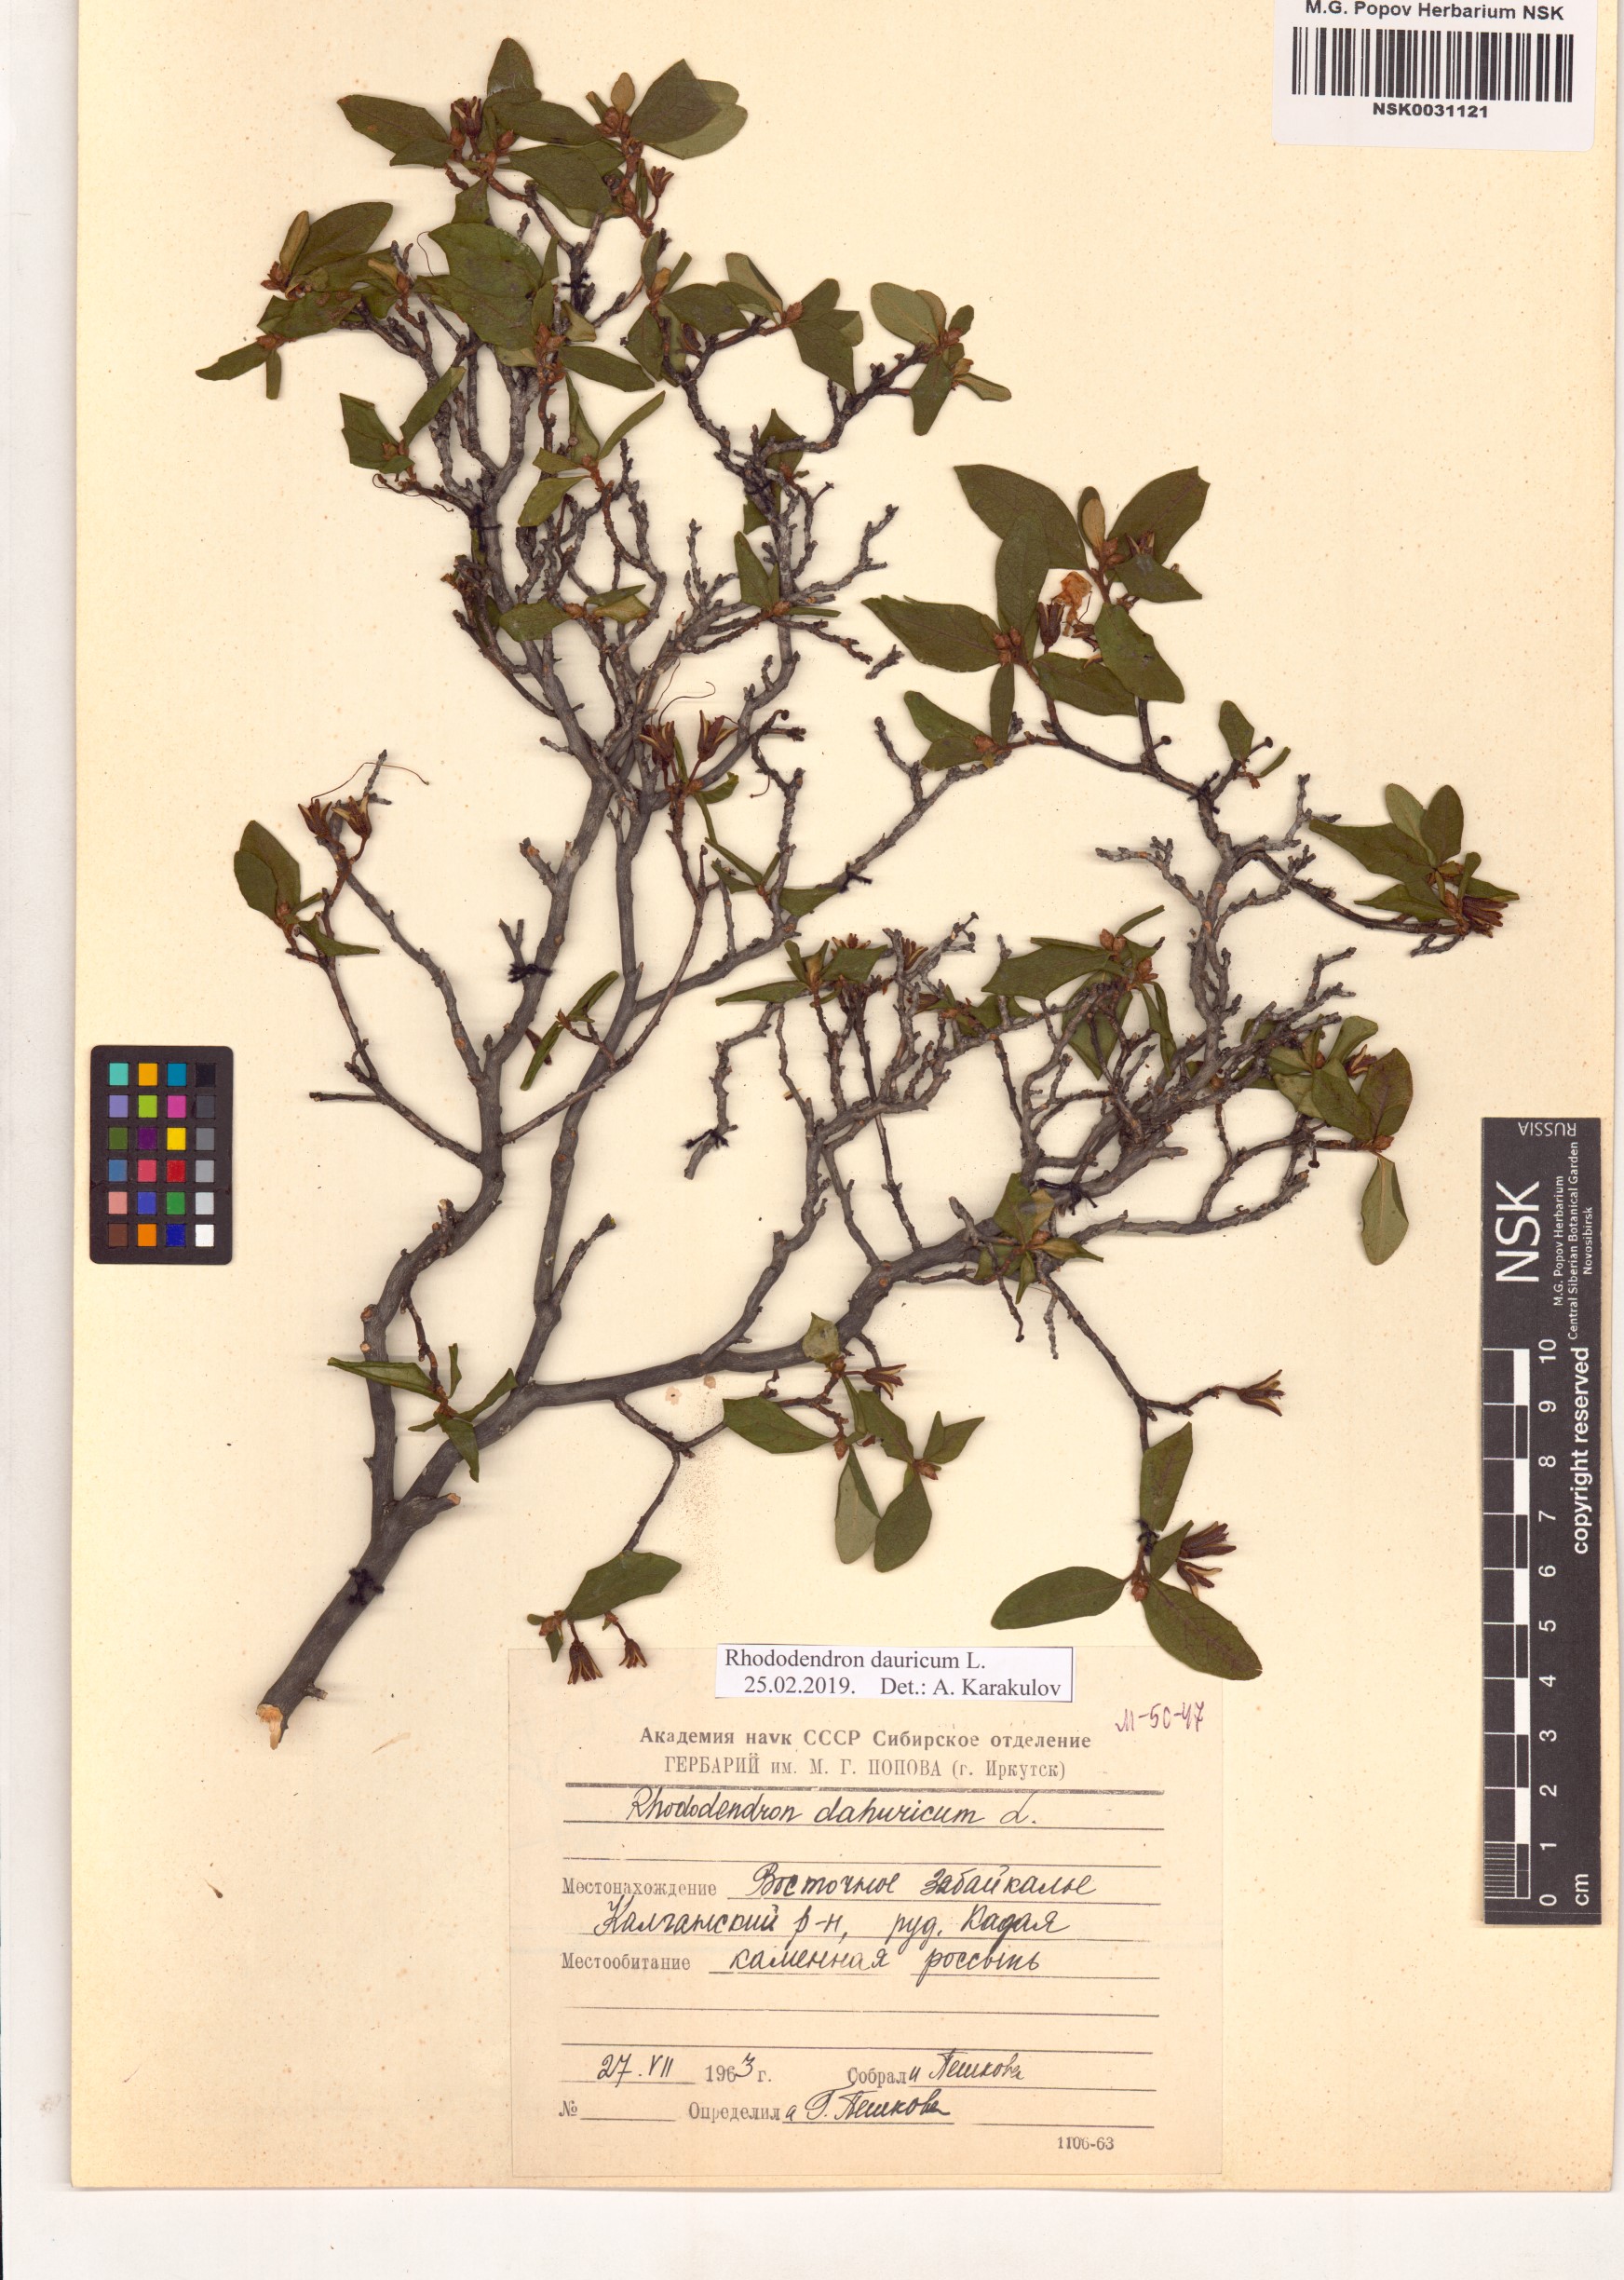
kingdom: Plantae
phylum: Tracheophyta
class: Magnoliopsida
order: Ericales
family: Ericaceae
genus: Rhododendron
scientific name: Rhododendron dauricum
